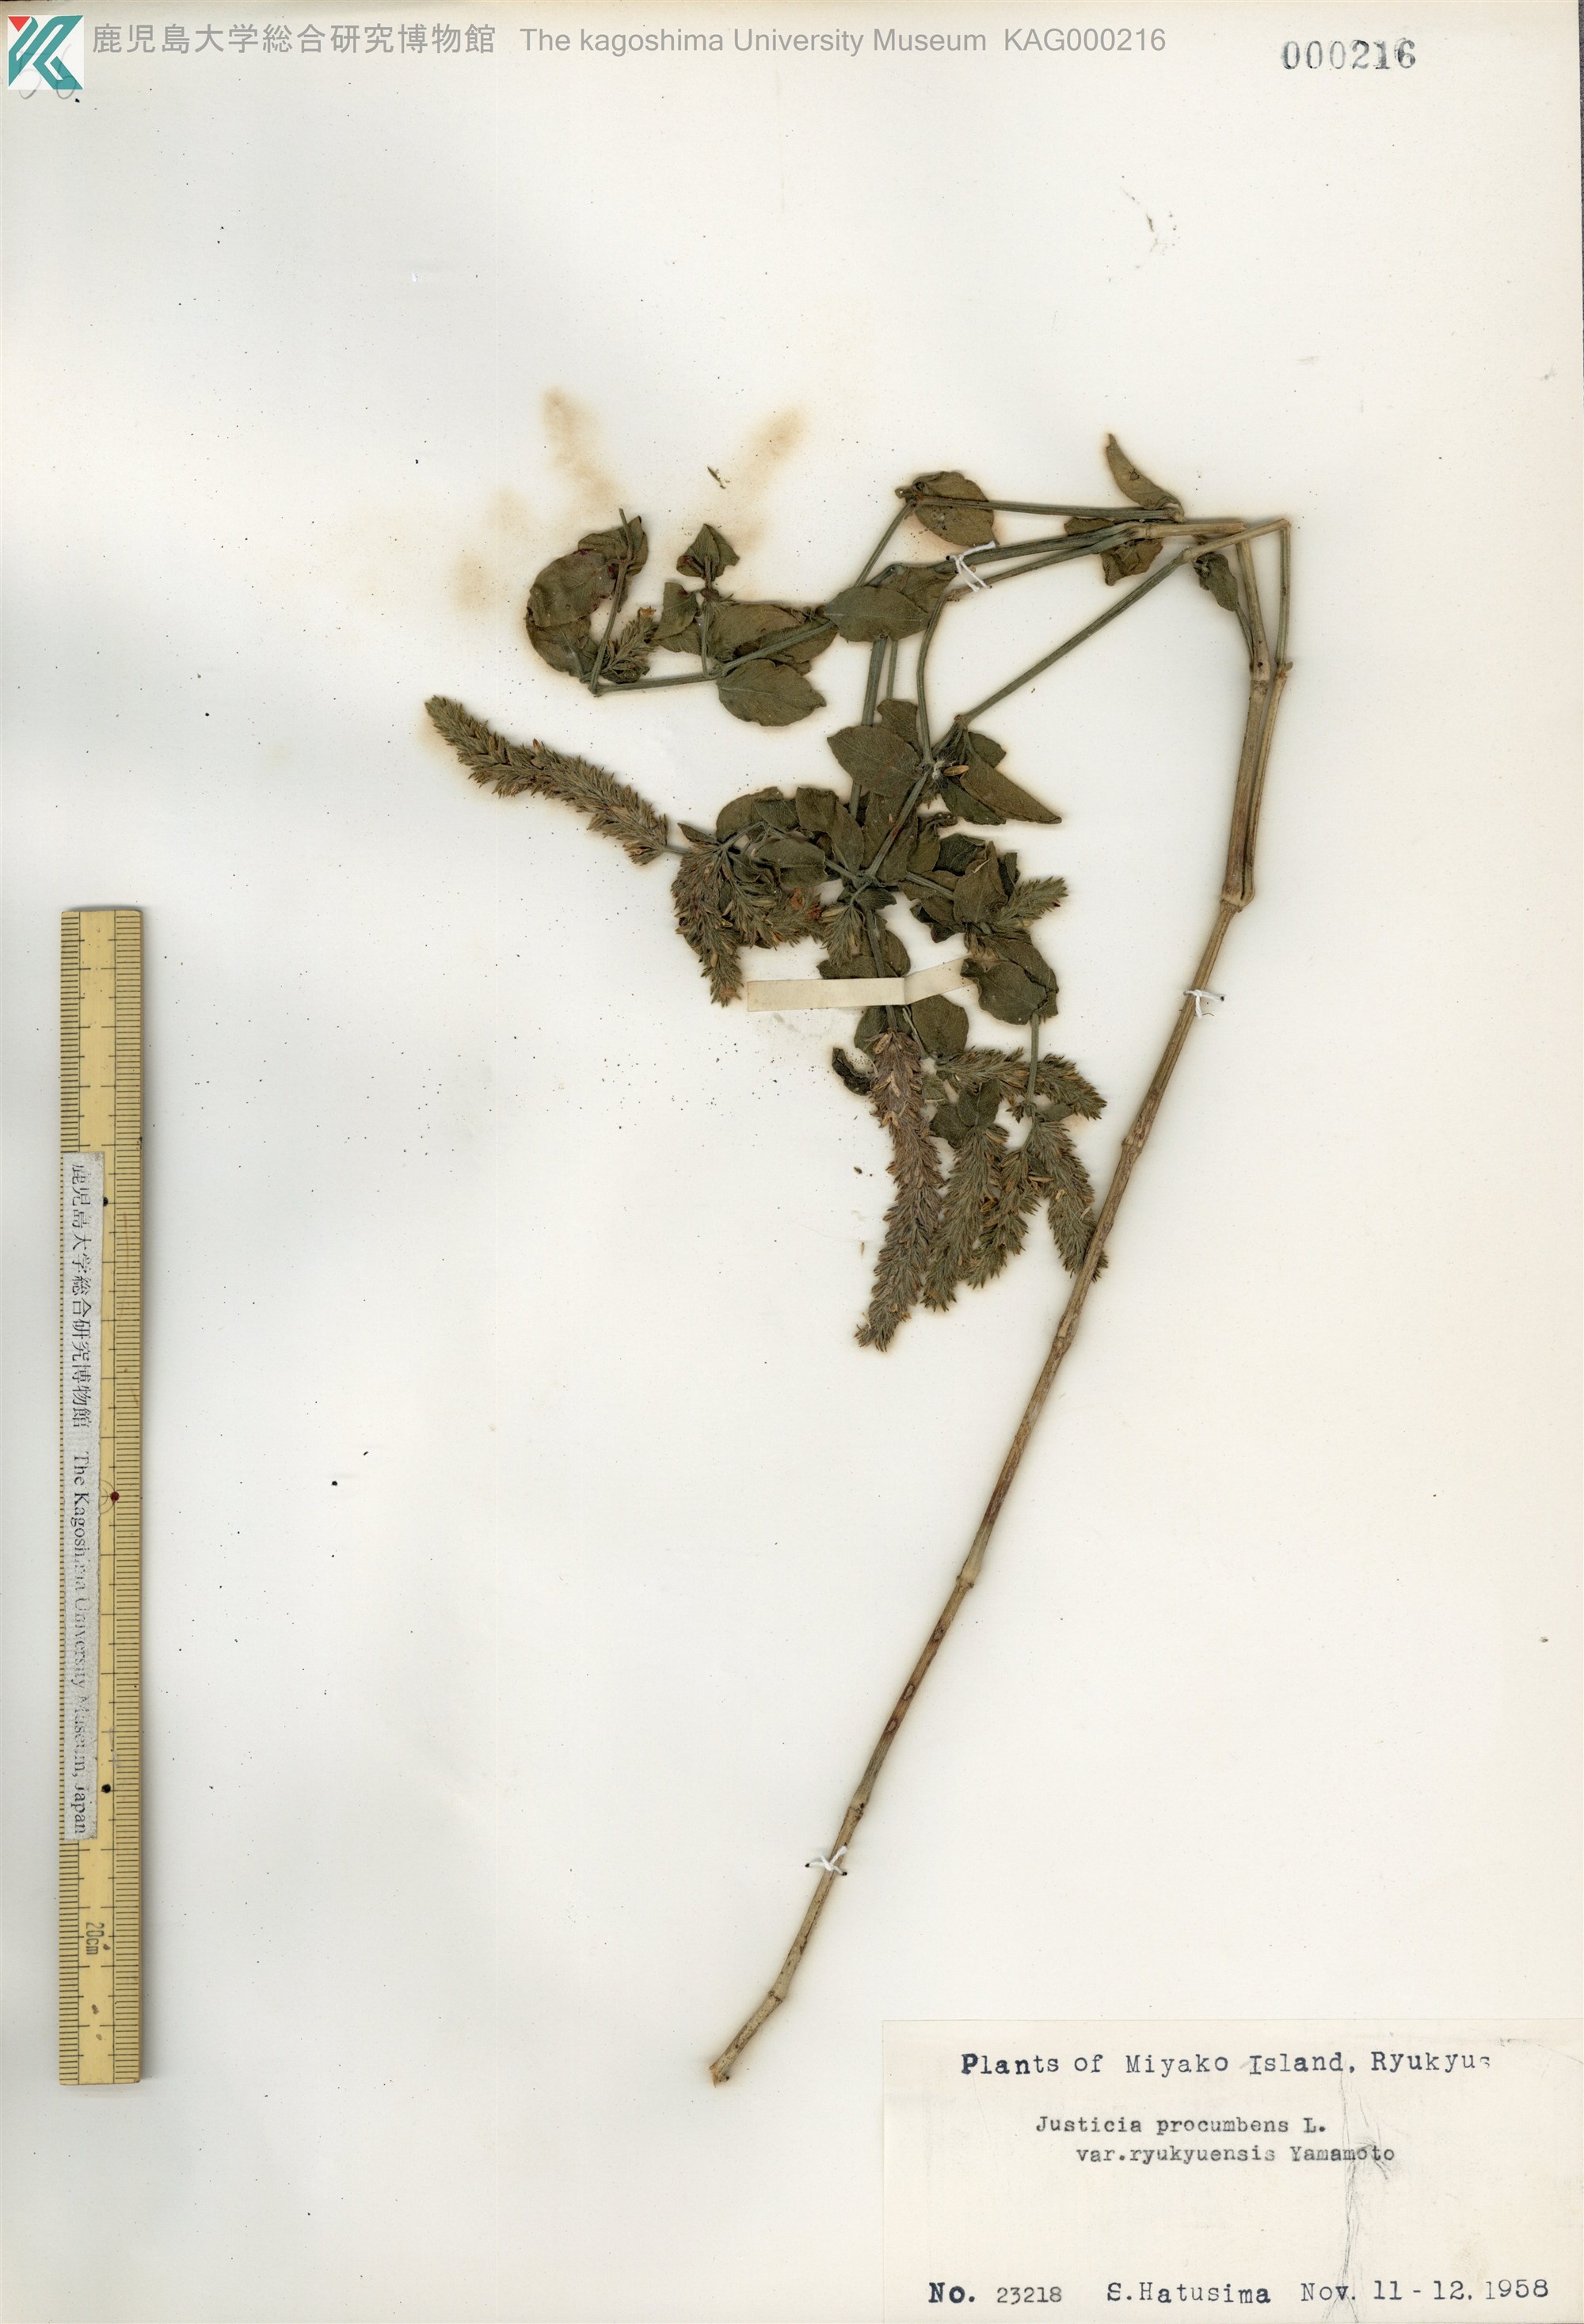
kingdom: Plantae
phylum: Tracheophyta
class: Magnoliopsida
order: Lamiales
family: Acanthaceae
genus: Rostellularia
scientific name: Rostellularia procumbens
